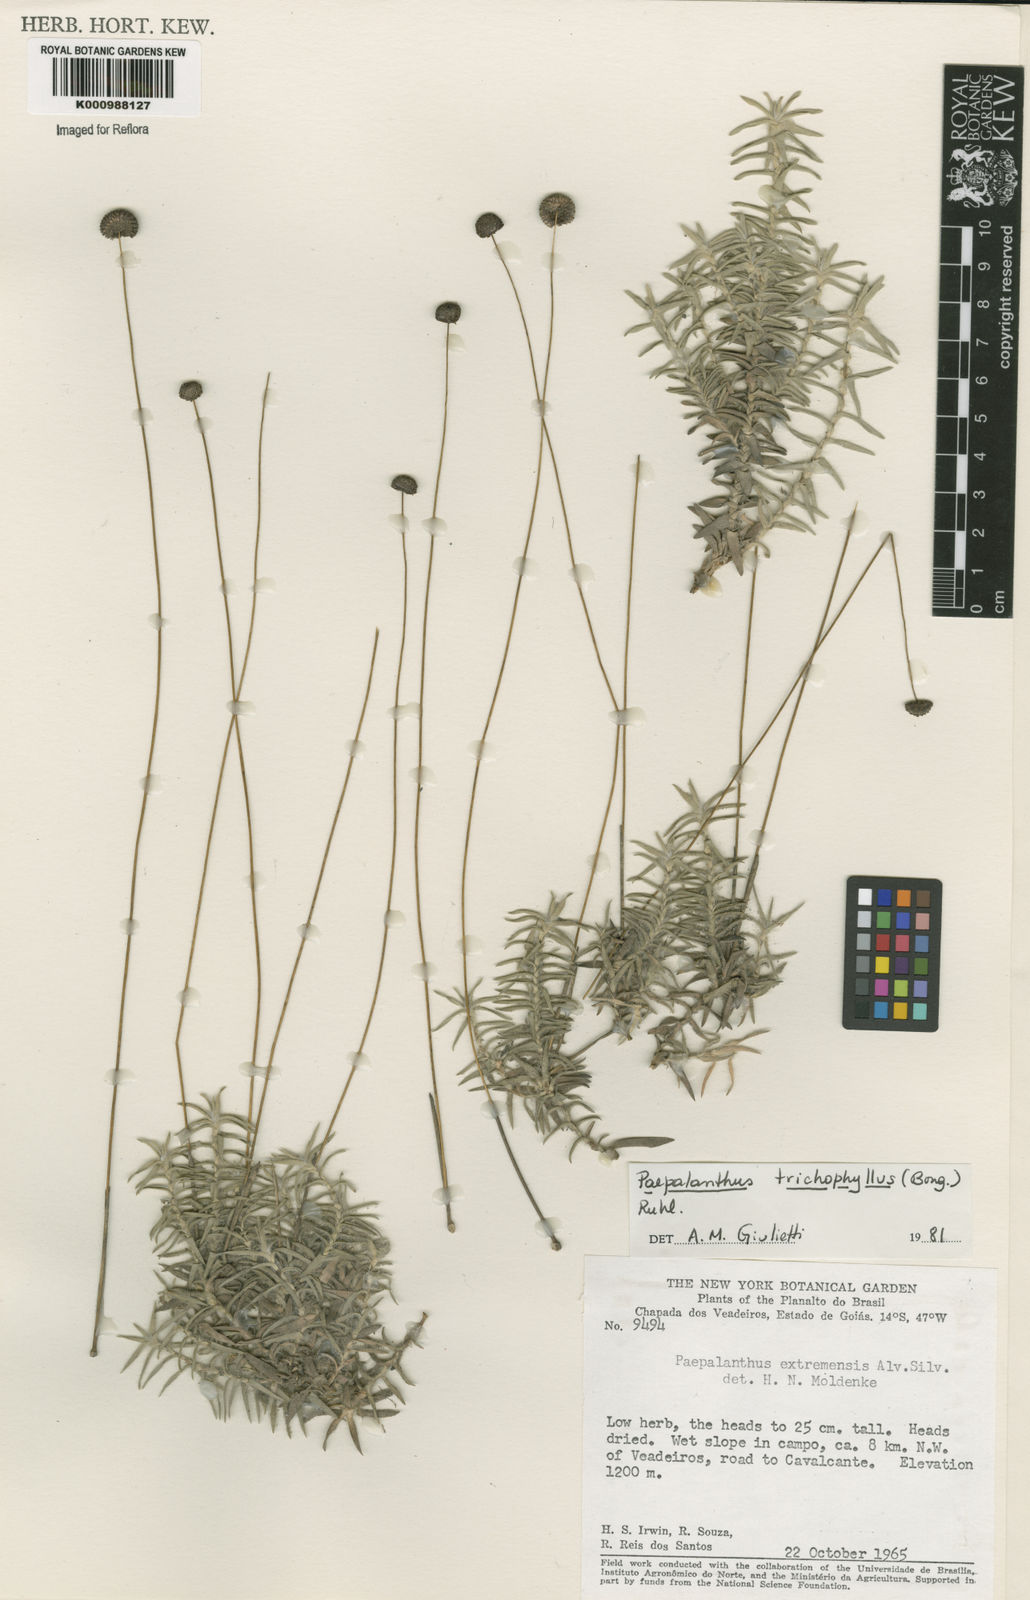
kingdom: Plantae
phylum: Tracheophyta
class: Liliopsida
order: Poales
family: Eriocaulaceae
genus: Paepalanthus
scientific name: Paepalanthus
